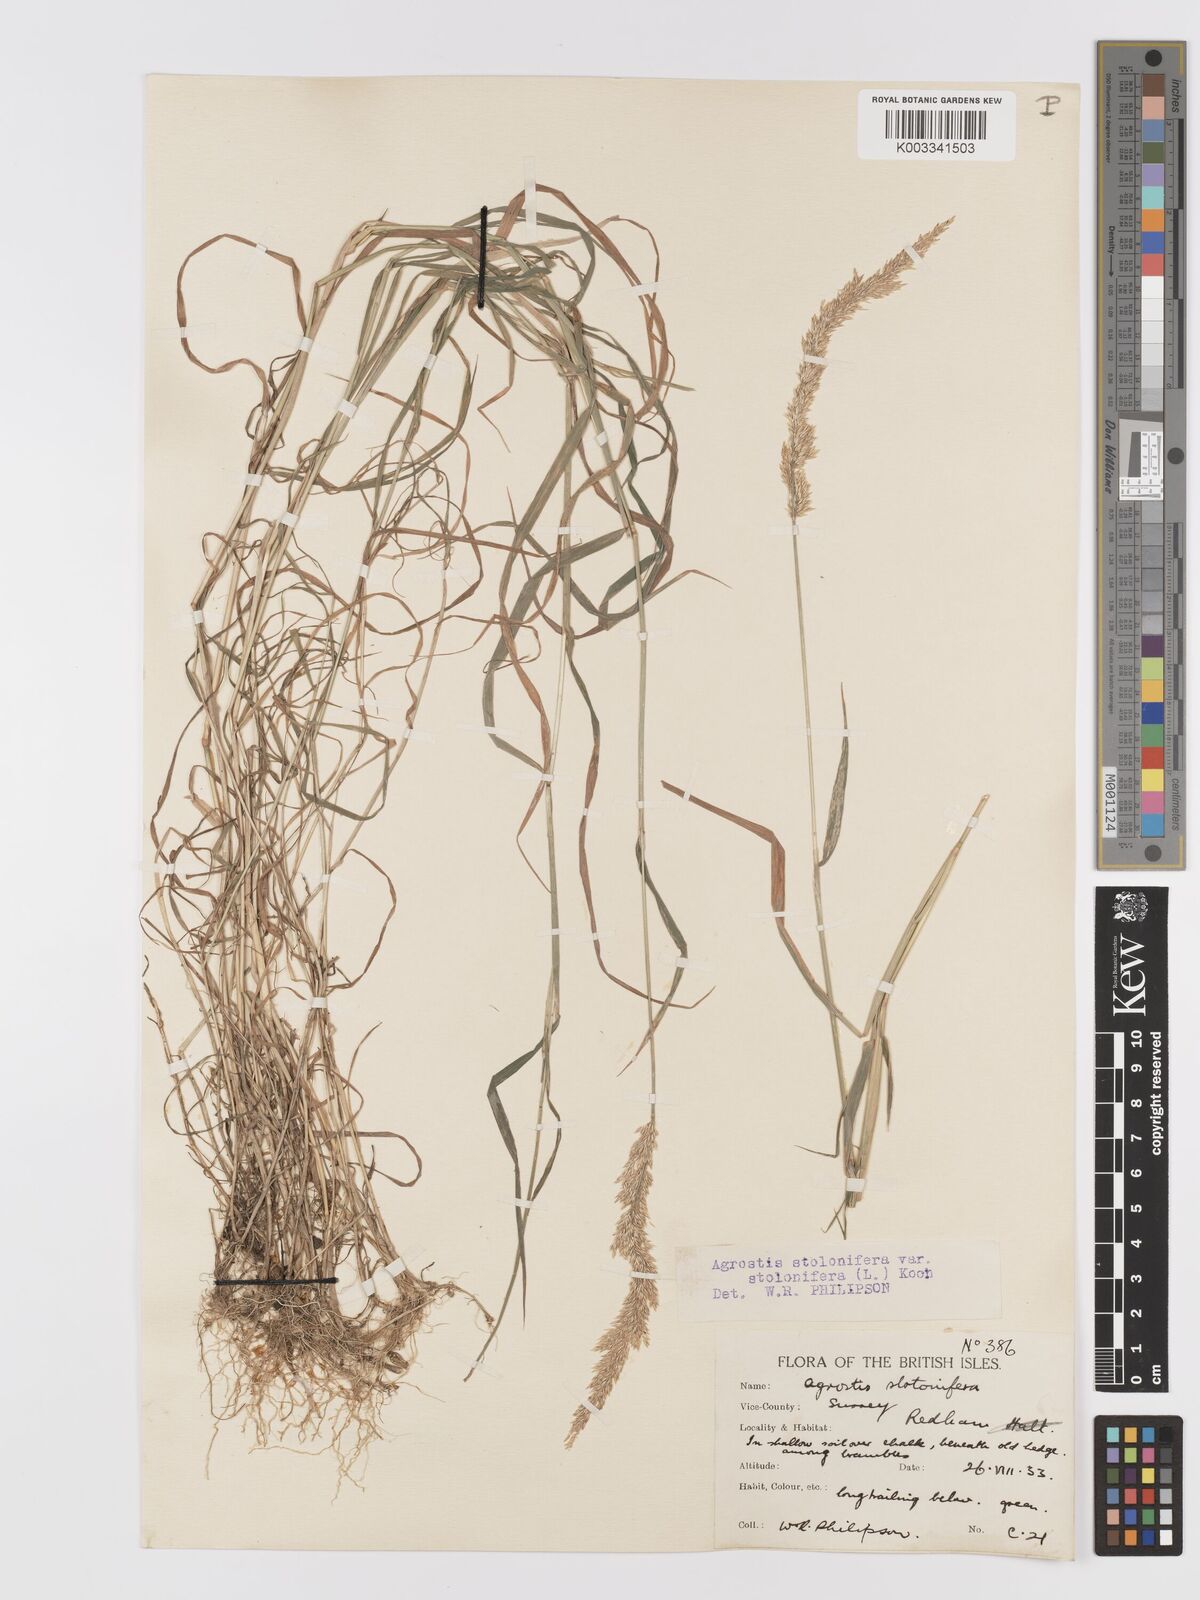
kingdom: Plantae
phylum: Tracheophyta
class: Liliopsida
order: Poales
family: Poaceae
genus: Agrostis
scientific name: Agrostis stolonifera
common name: Creeping bentgrass
